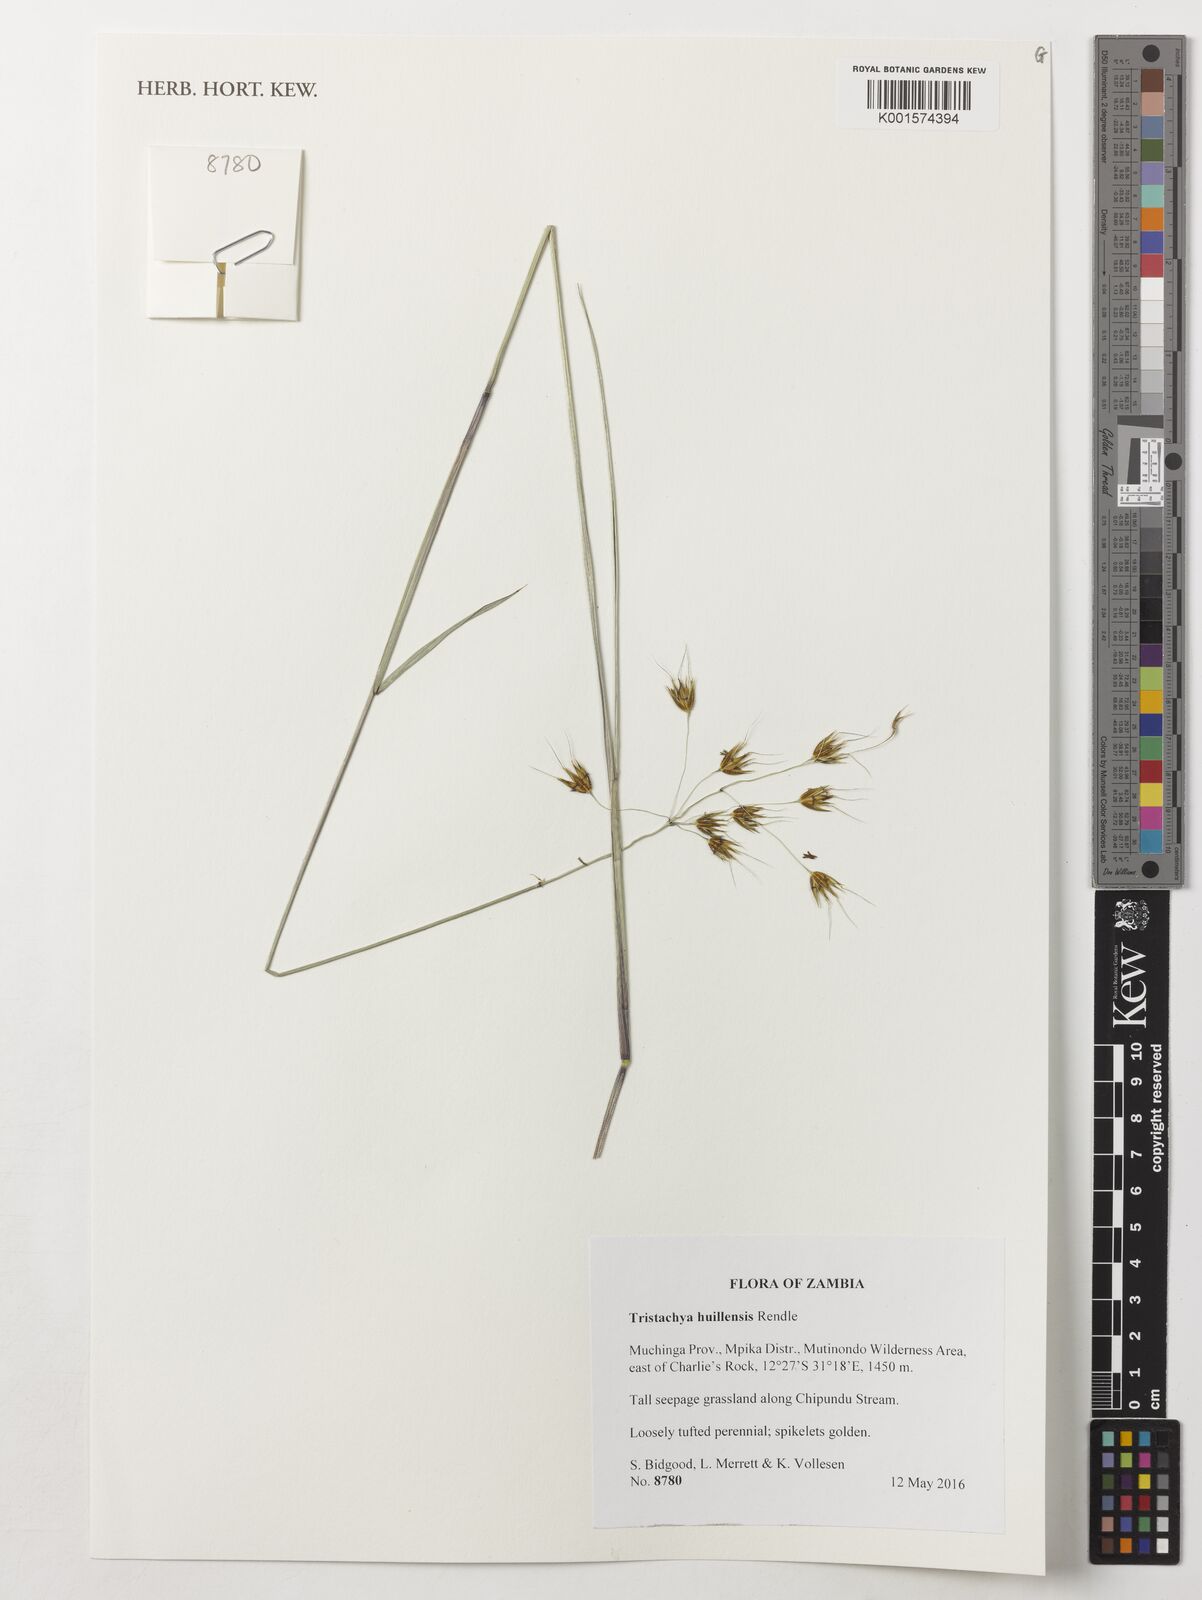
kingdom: Plantae
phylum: Tracheophyta
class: Liliopsida
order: Poales
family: Poaceae
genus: Tristachya
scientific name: Tristachya huillensis
